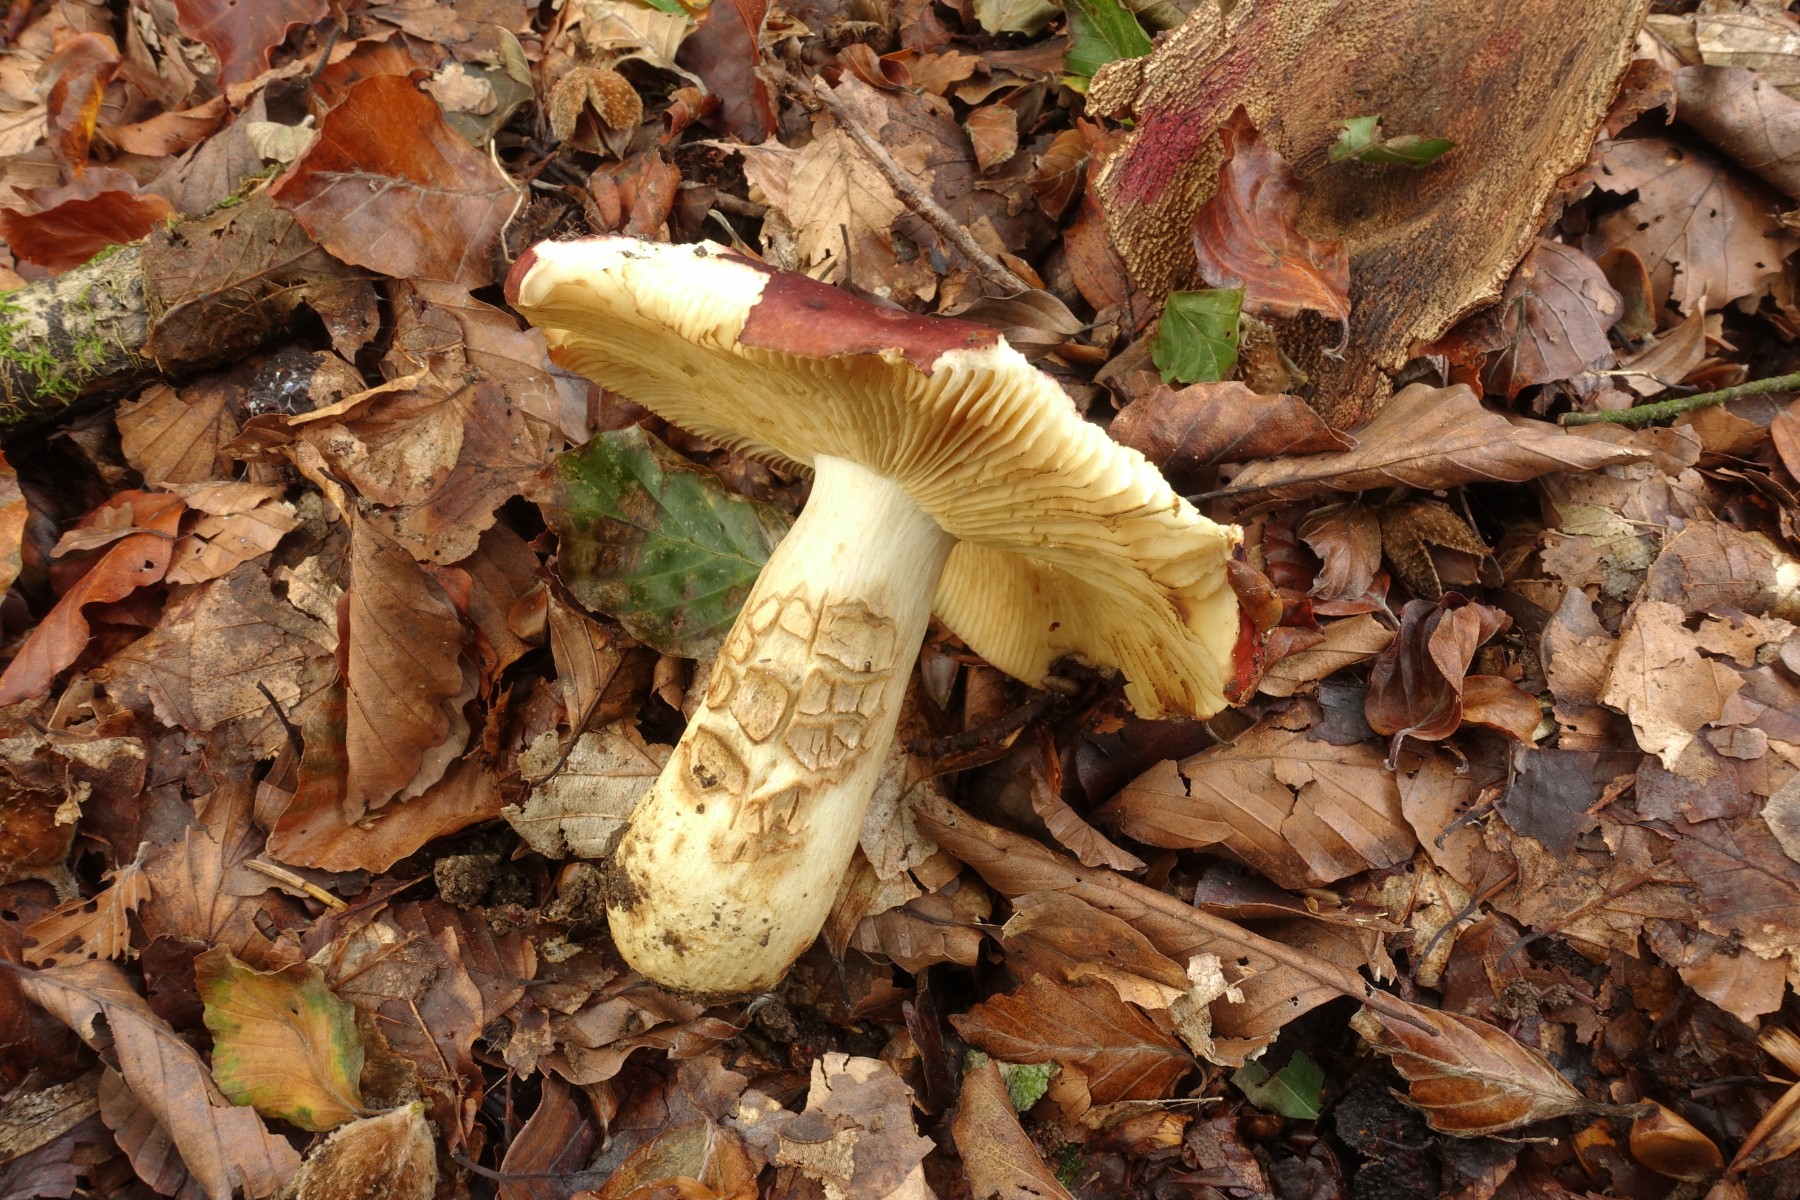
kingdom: Fungi
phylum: Basidiomycota
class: Agaricomycetes
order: Russulales
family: Russulaceae
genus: Russula
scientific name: Russula viscida
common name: knippe-skørhat
